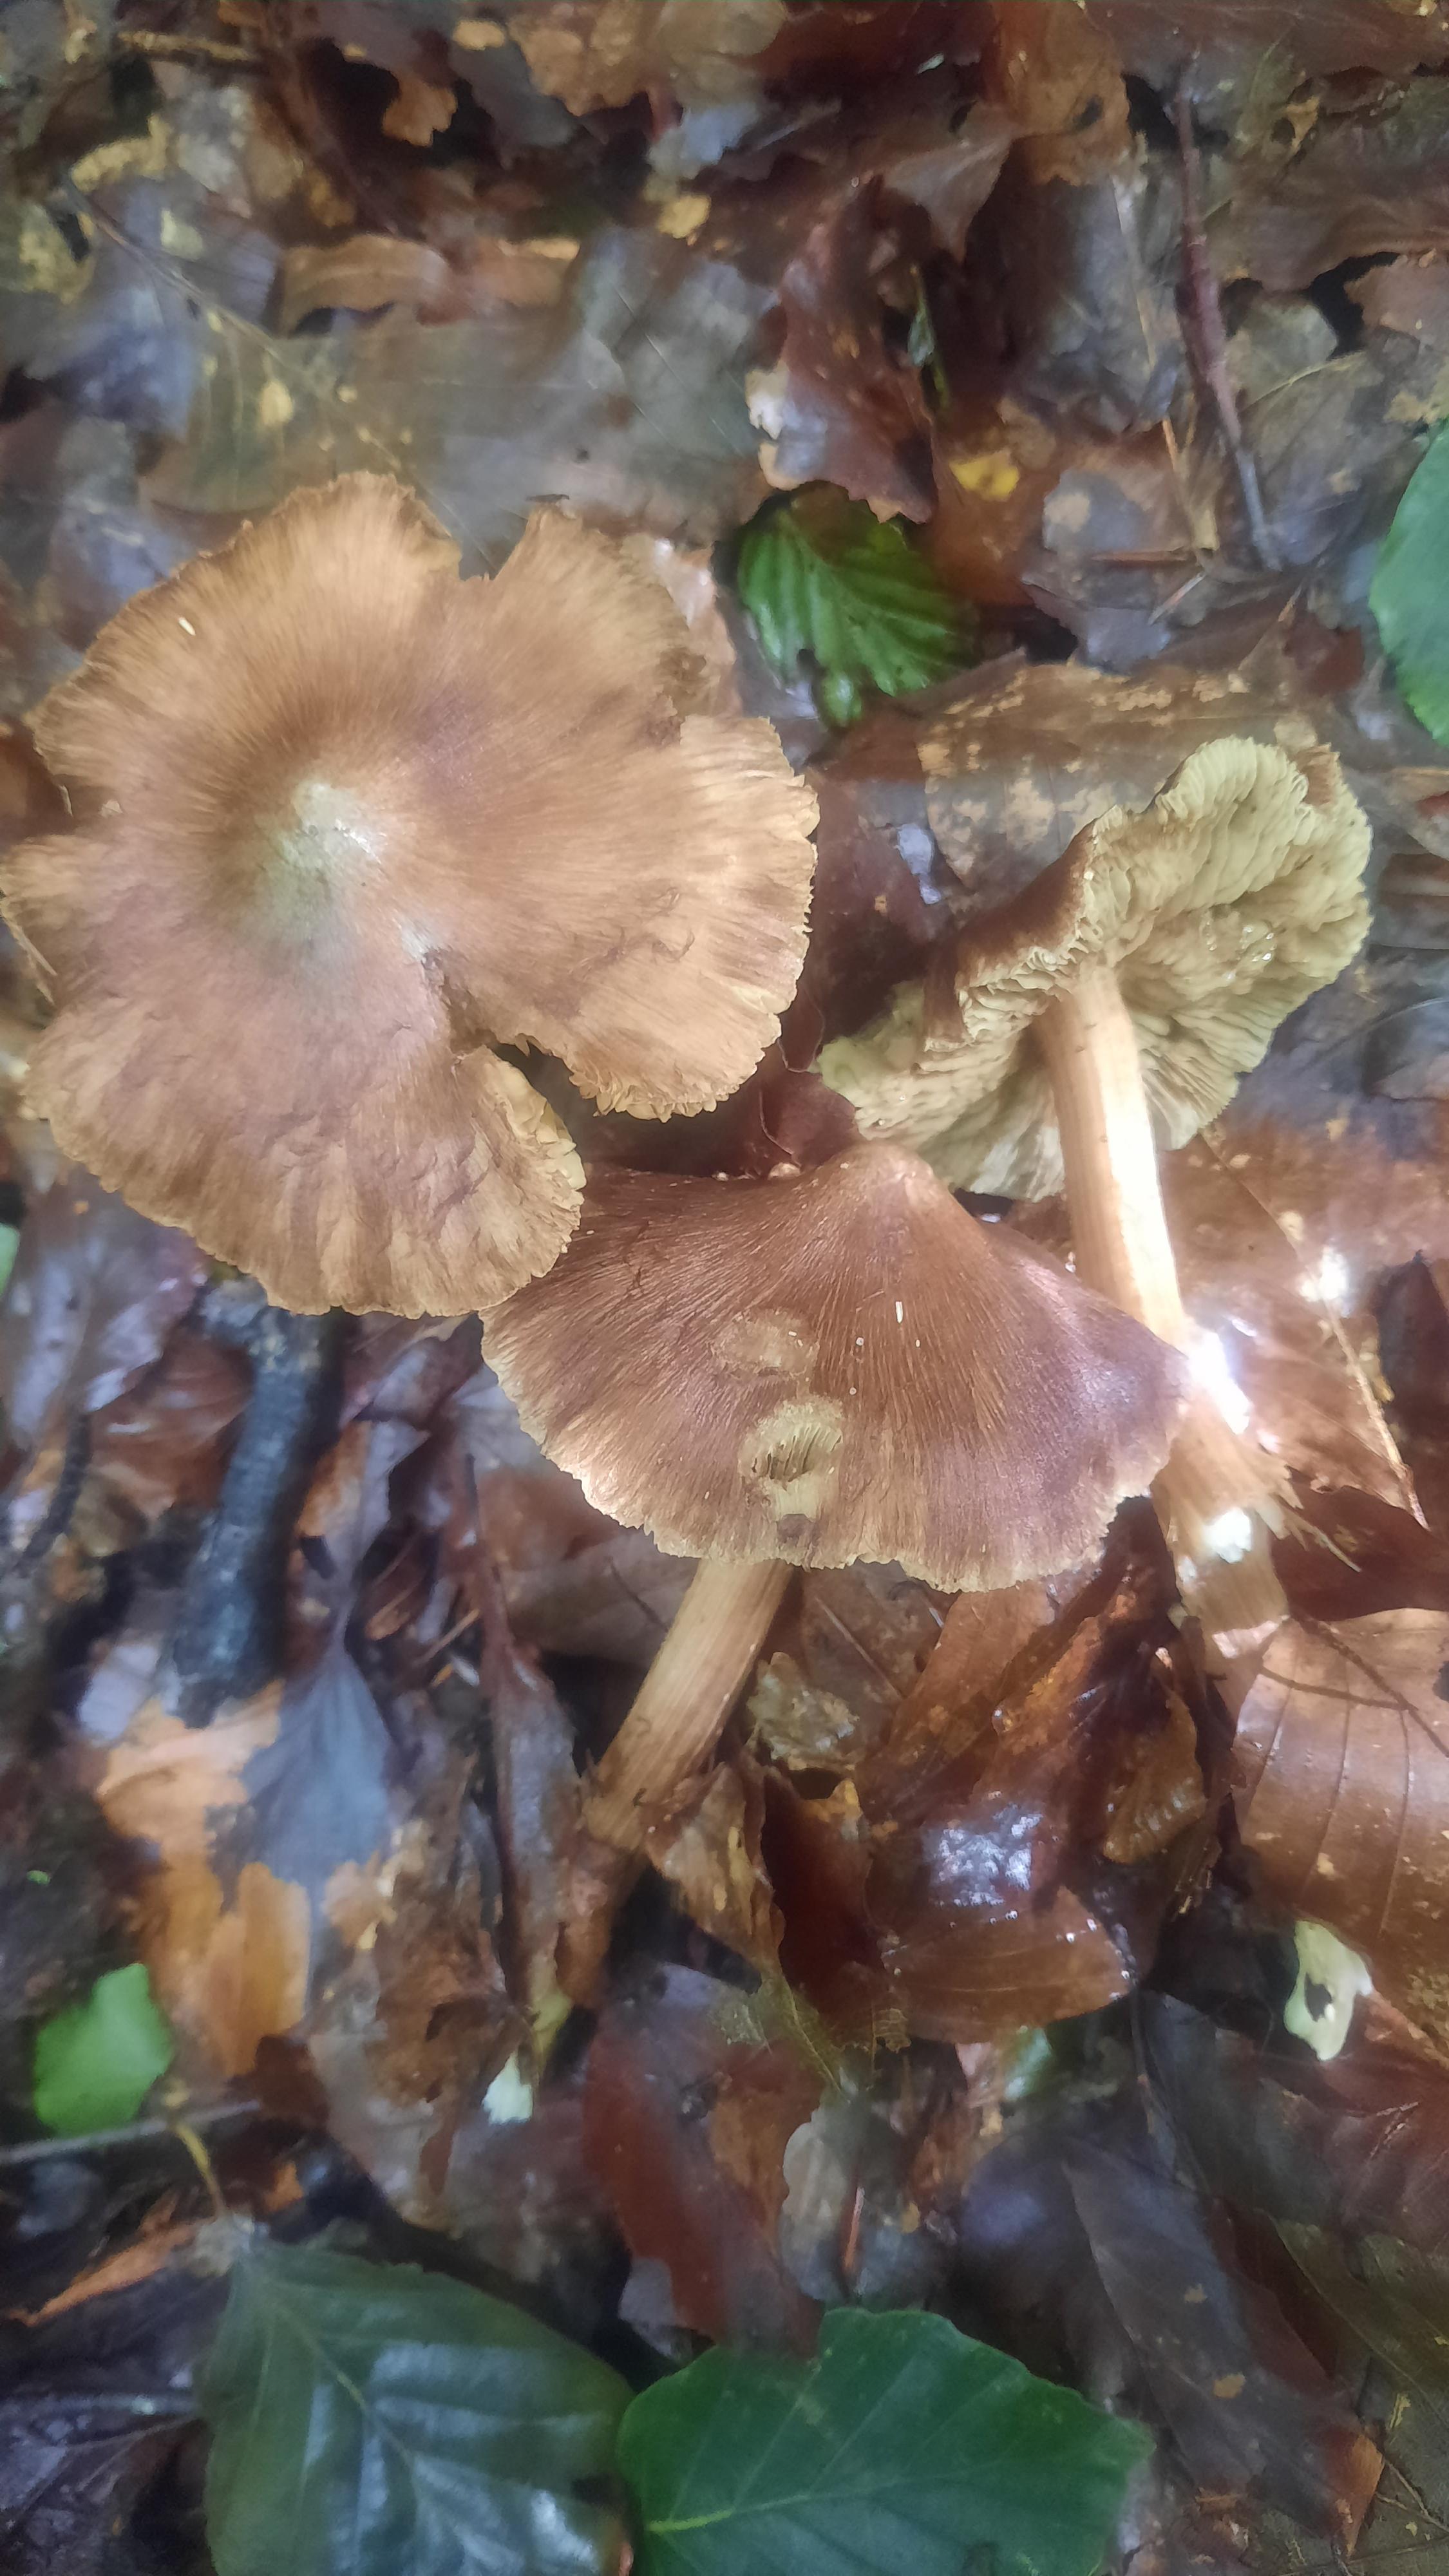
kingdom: Fungi
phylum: Basidiomycota
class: Agaricomycetes
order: Agaricales
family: Inocybaceae
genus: Inosperma
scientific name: Inosperma
